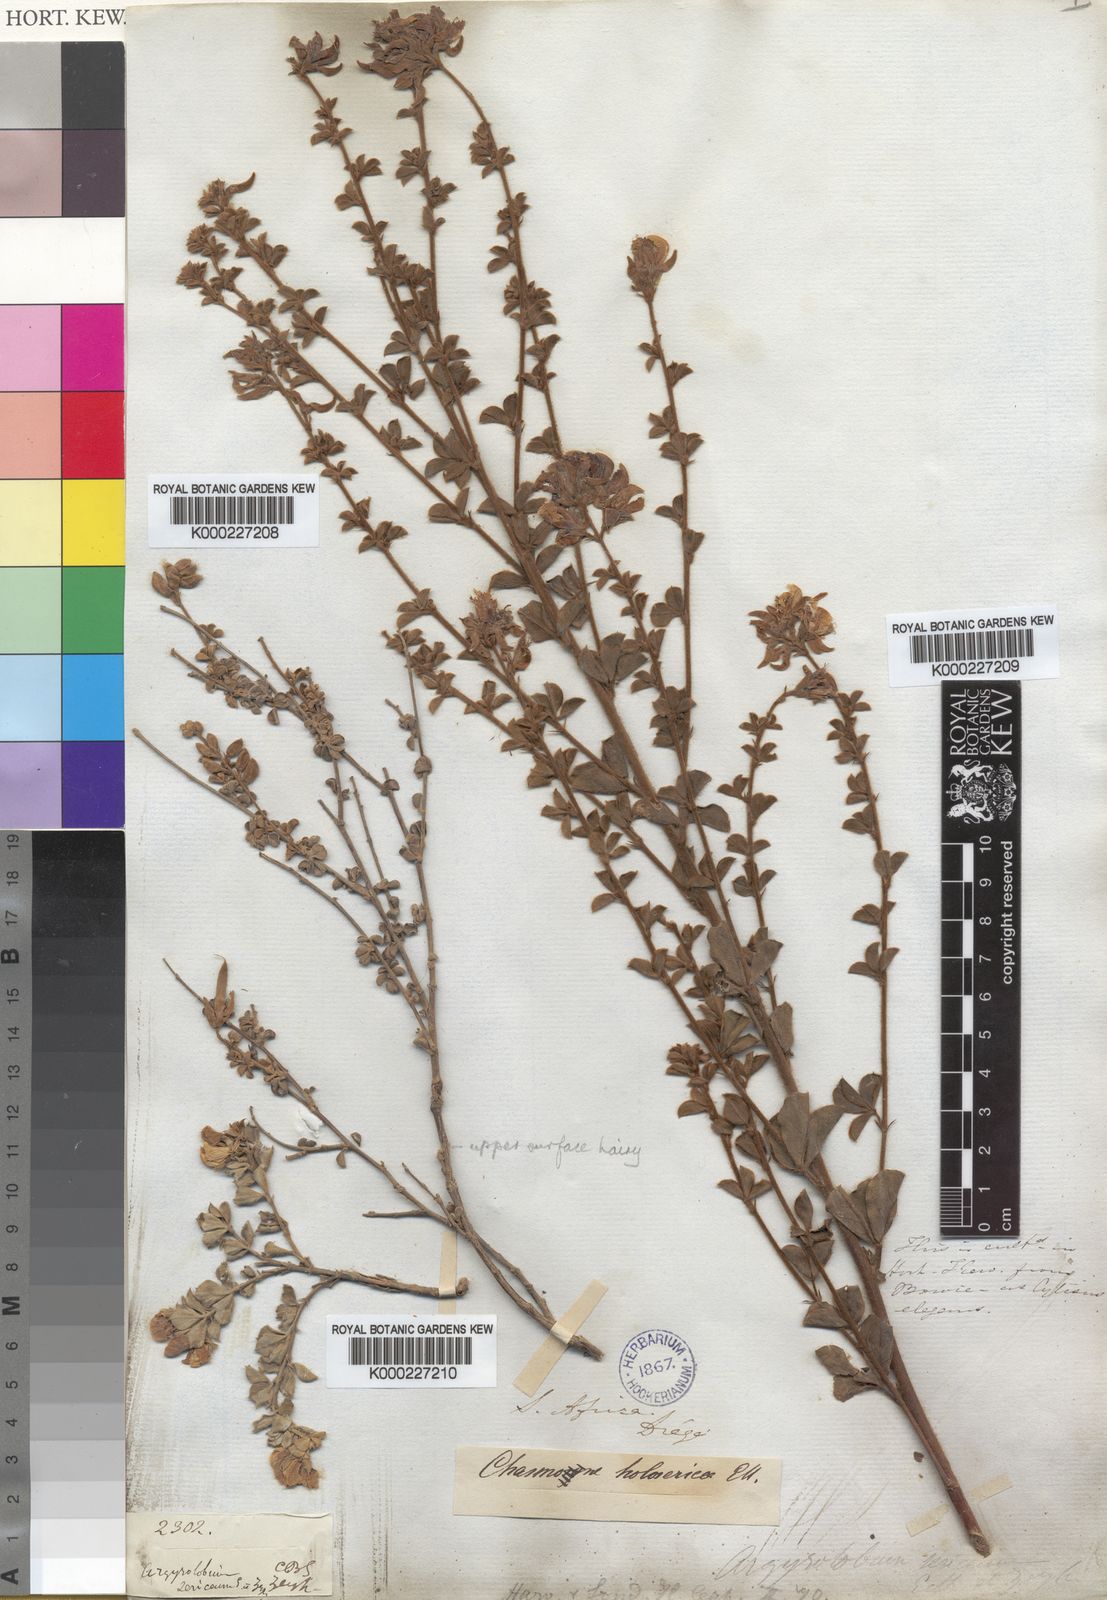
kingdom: Plantae
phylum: Tracheophyta
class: Magnoliopsida
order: Fabales
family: Fabaceae
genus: Argyrolobium
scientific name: Argyrolobium trifoliatum
